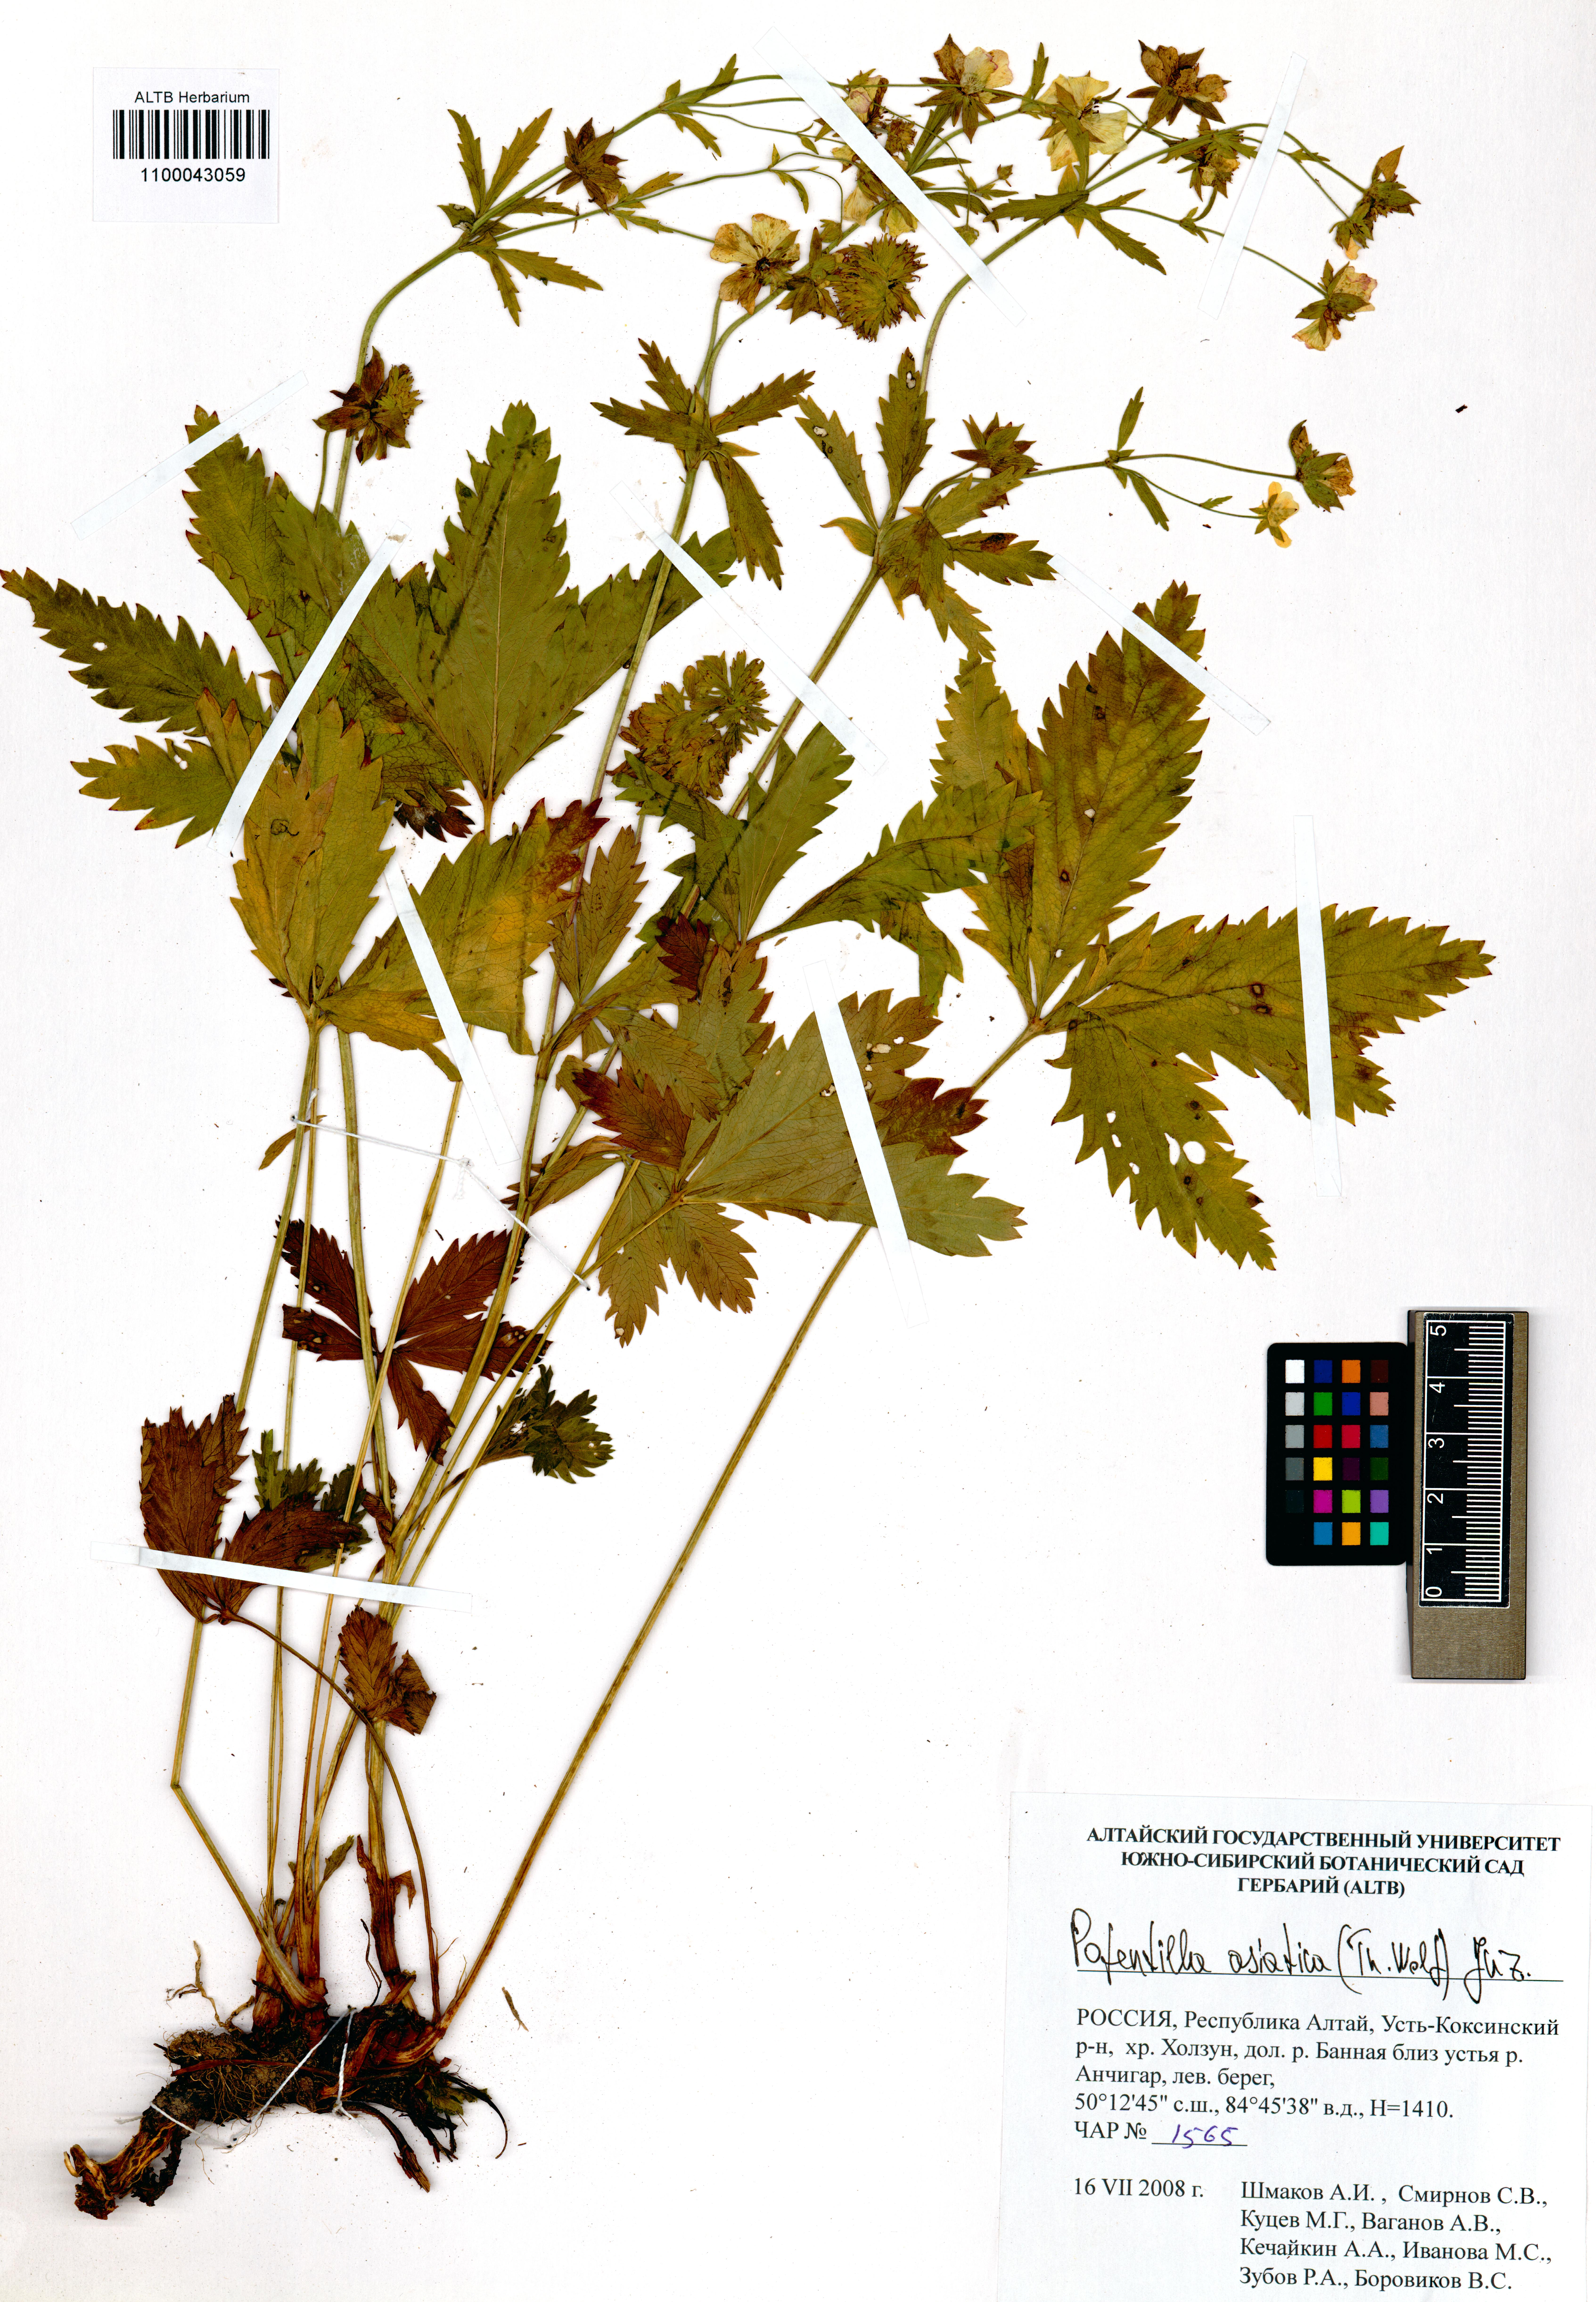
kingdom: Plantae
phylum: Tracheophyta
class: Magnoliopsida
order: Rosales
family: Rosaceae
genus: Potentilla
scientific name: Potentilla asiatica
